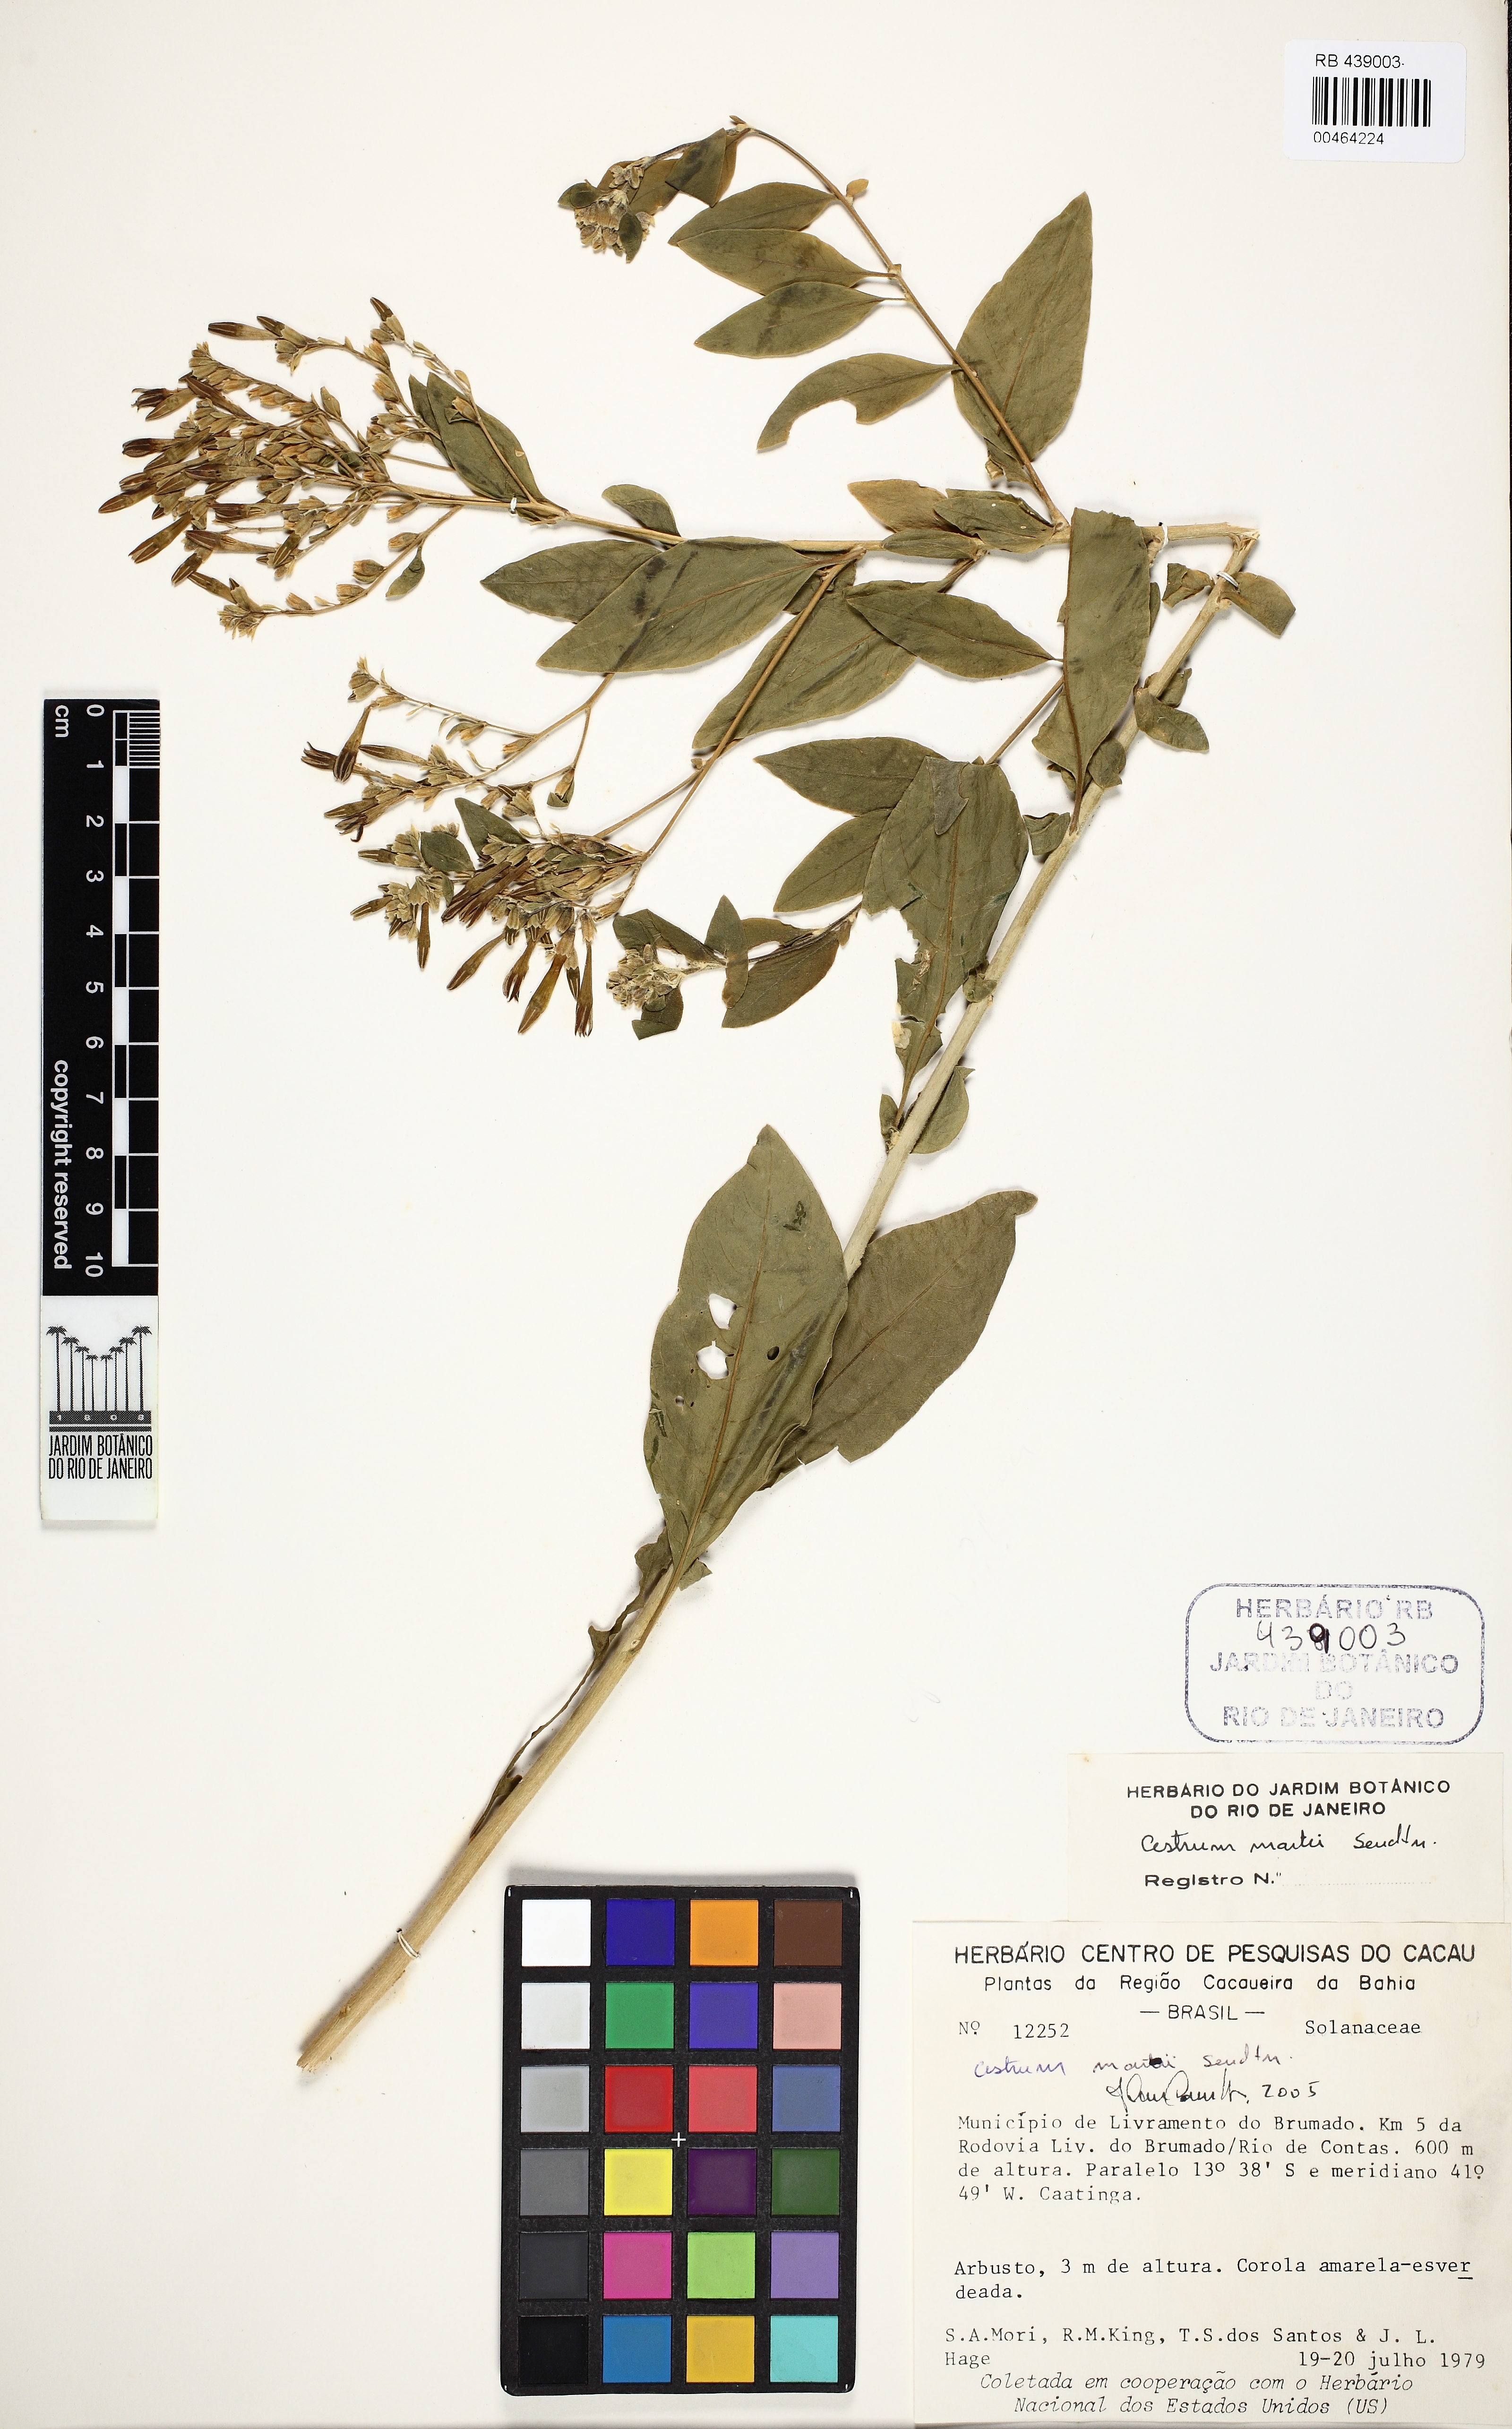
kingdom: Plantae
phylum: Tracheophyta
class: Magnoliopsida
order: Solanales
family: Solanaceae
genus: Cestrum
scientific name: Cestrum martii
